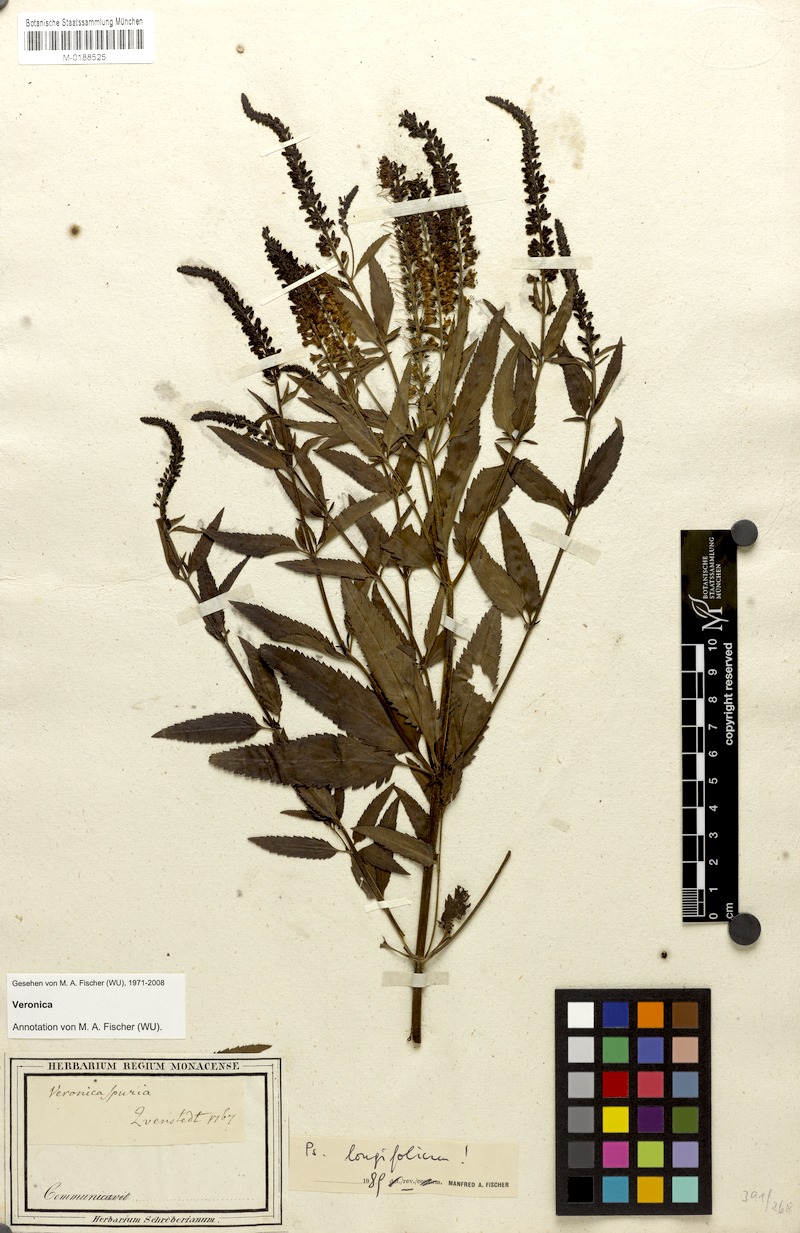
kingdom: Plantae
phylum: Tracheophyta
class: Magnoliopsida
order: Lamiales
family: Plantaginaceae
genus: Veronica
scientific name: Veronica spuria
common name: Bastard speedwell
